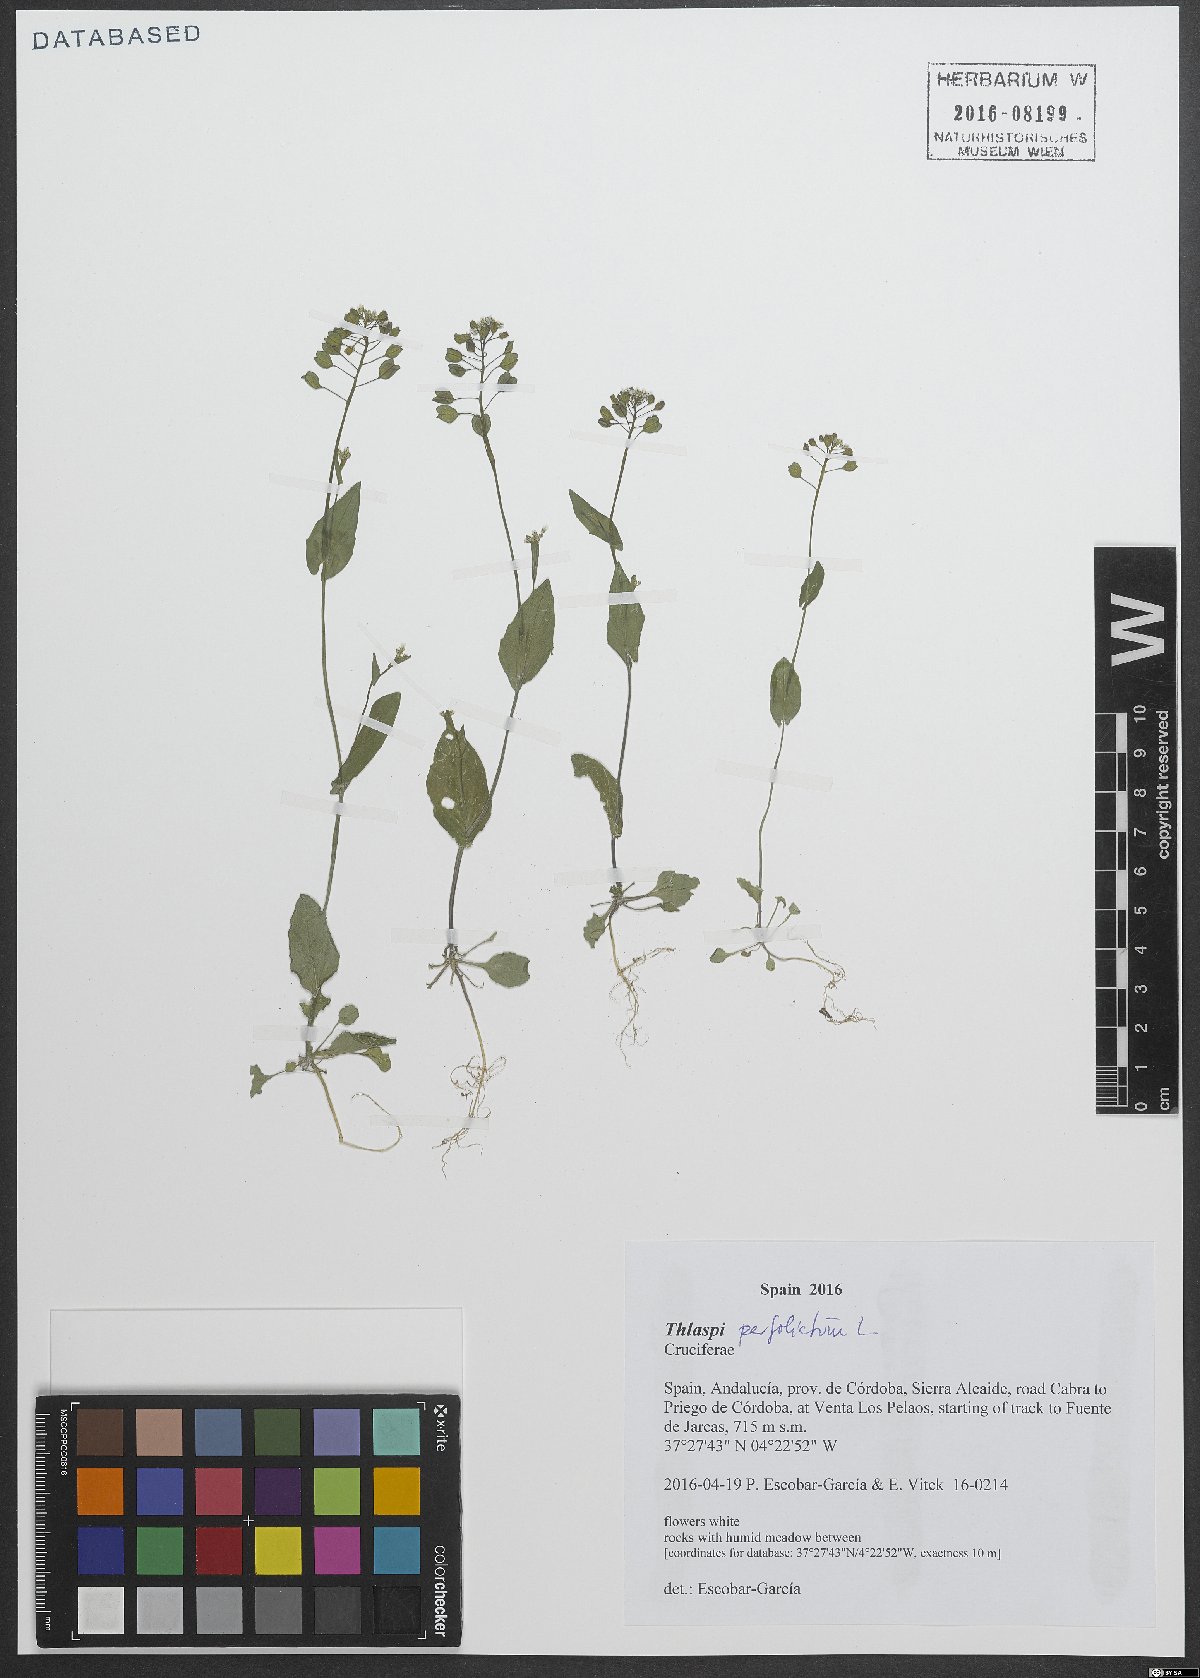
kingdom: Plantae
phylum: Tracheophyta
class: Magnoliopsida
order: Brassicales
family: Brassicaceae
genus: Noccaea
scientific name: Noccaea perfoliata
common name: Perfoliate pennycress
